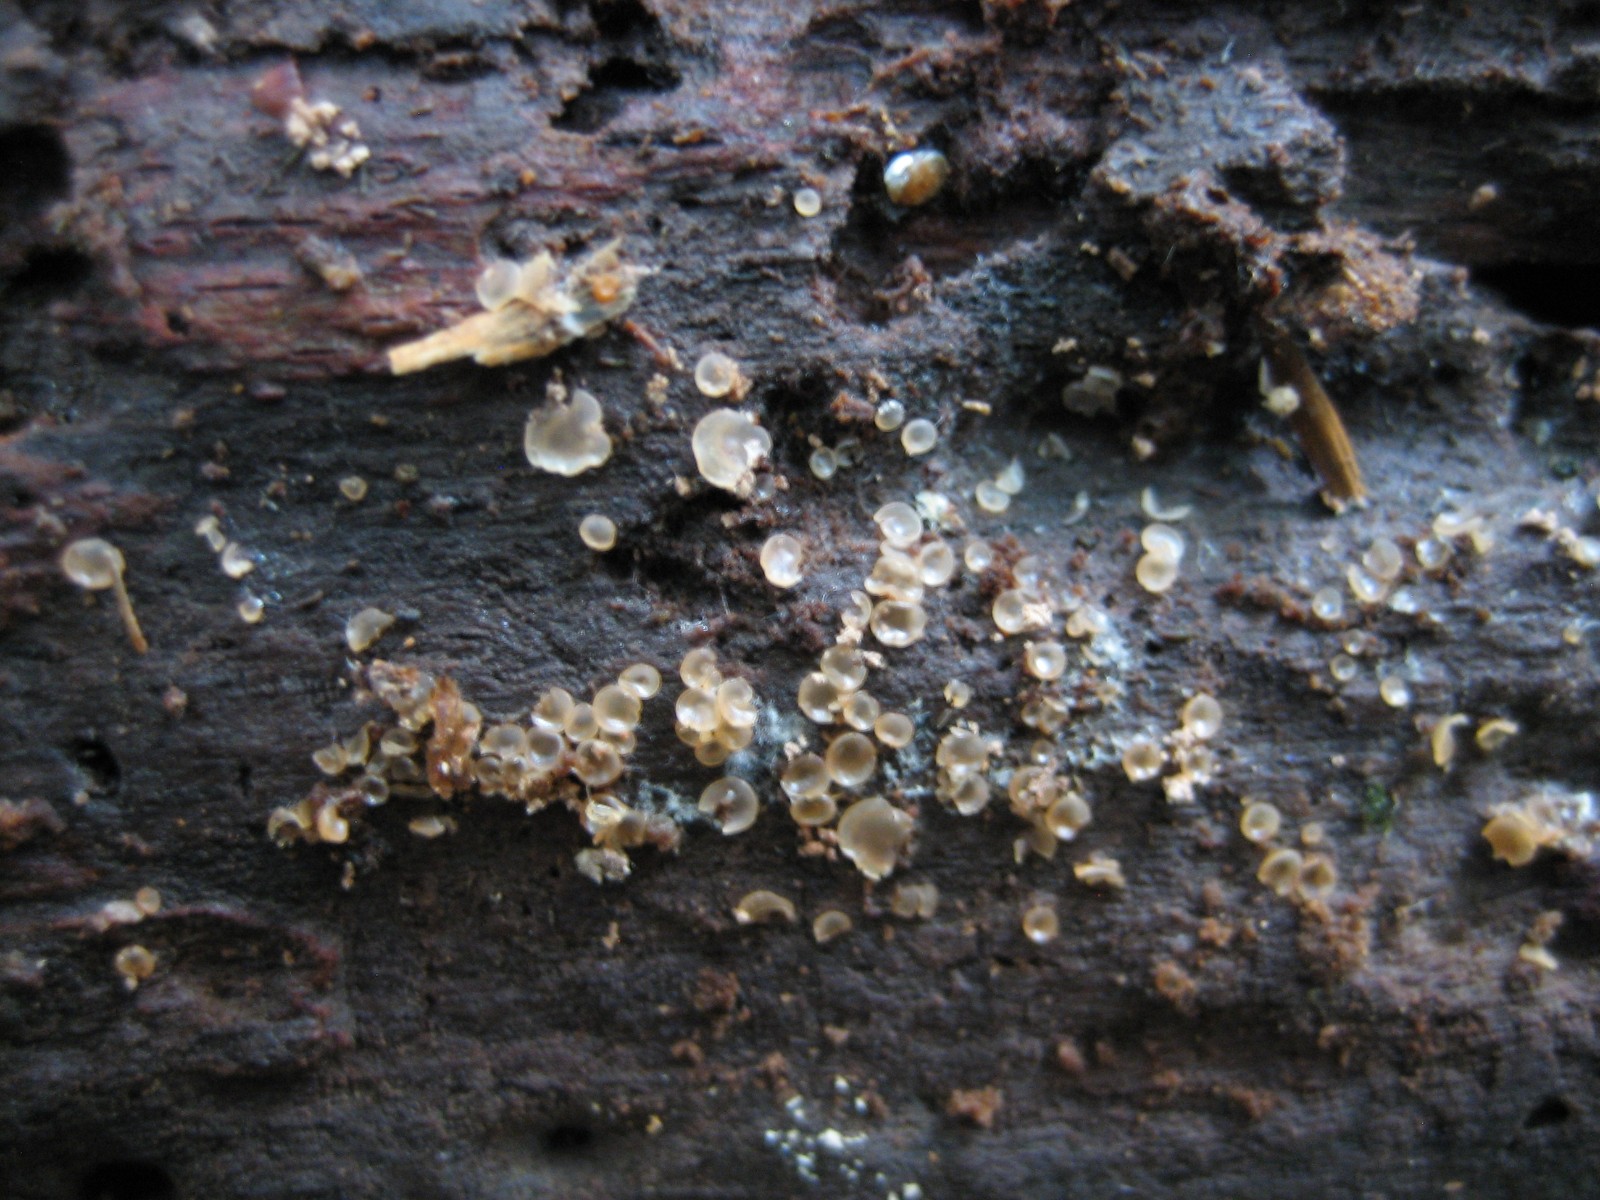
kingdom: Fungi
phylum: Ascomycota
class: Orbiliomycetes
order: Orbiliales
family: Orbiliaceae
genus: Hyalorbilia
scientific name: Hyalorbilia
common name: voksskive
